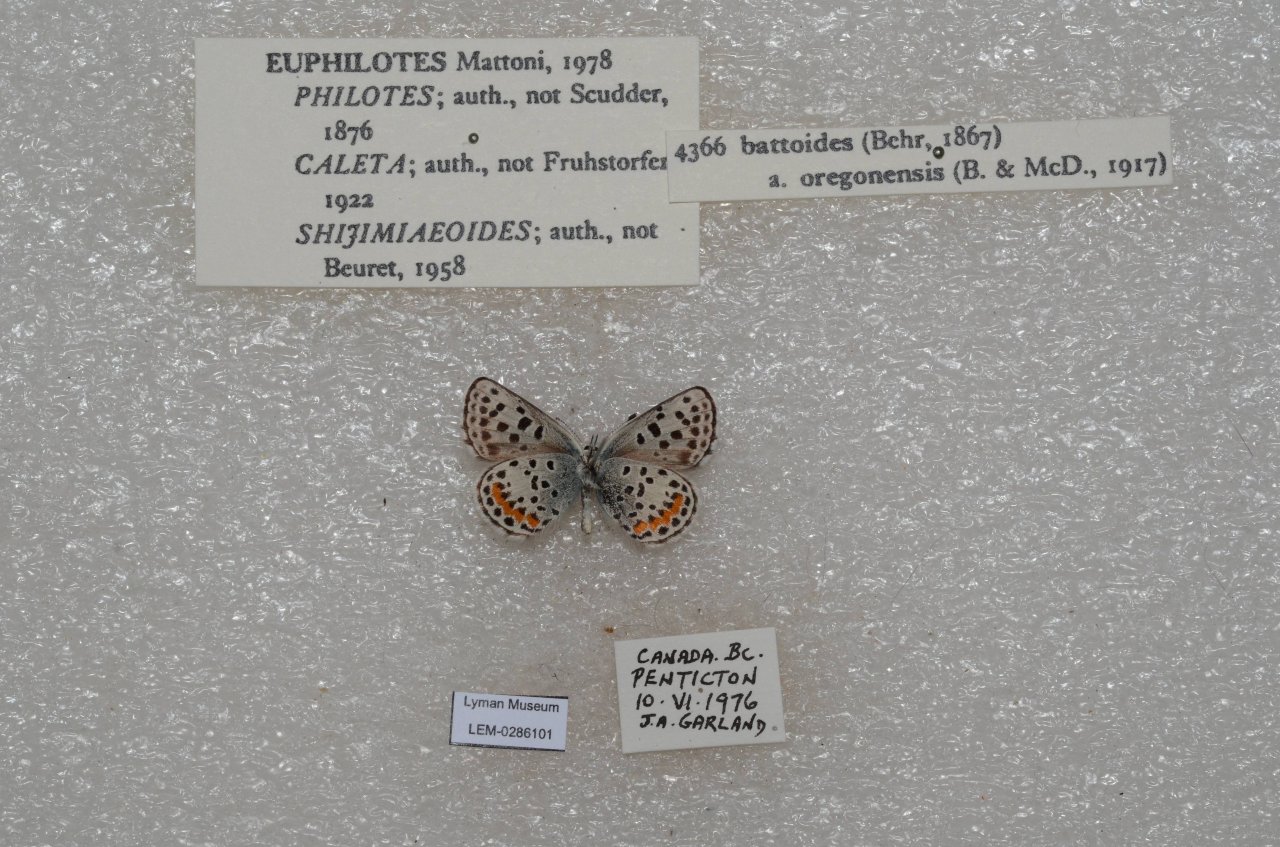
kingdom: Animalia
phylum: Arthropoda
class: Insecta
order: Lepidoptera
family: Lycaenidae
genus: Euphilotes
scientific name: Euphilotes battoides
